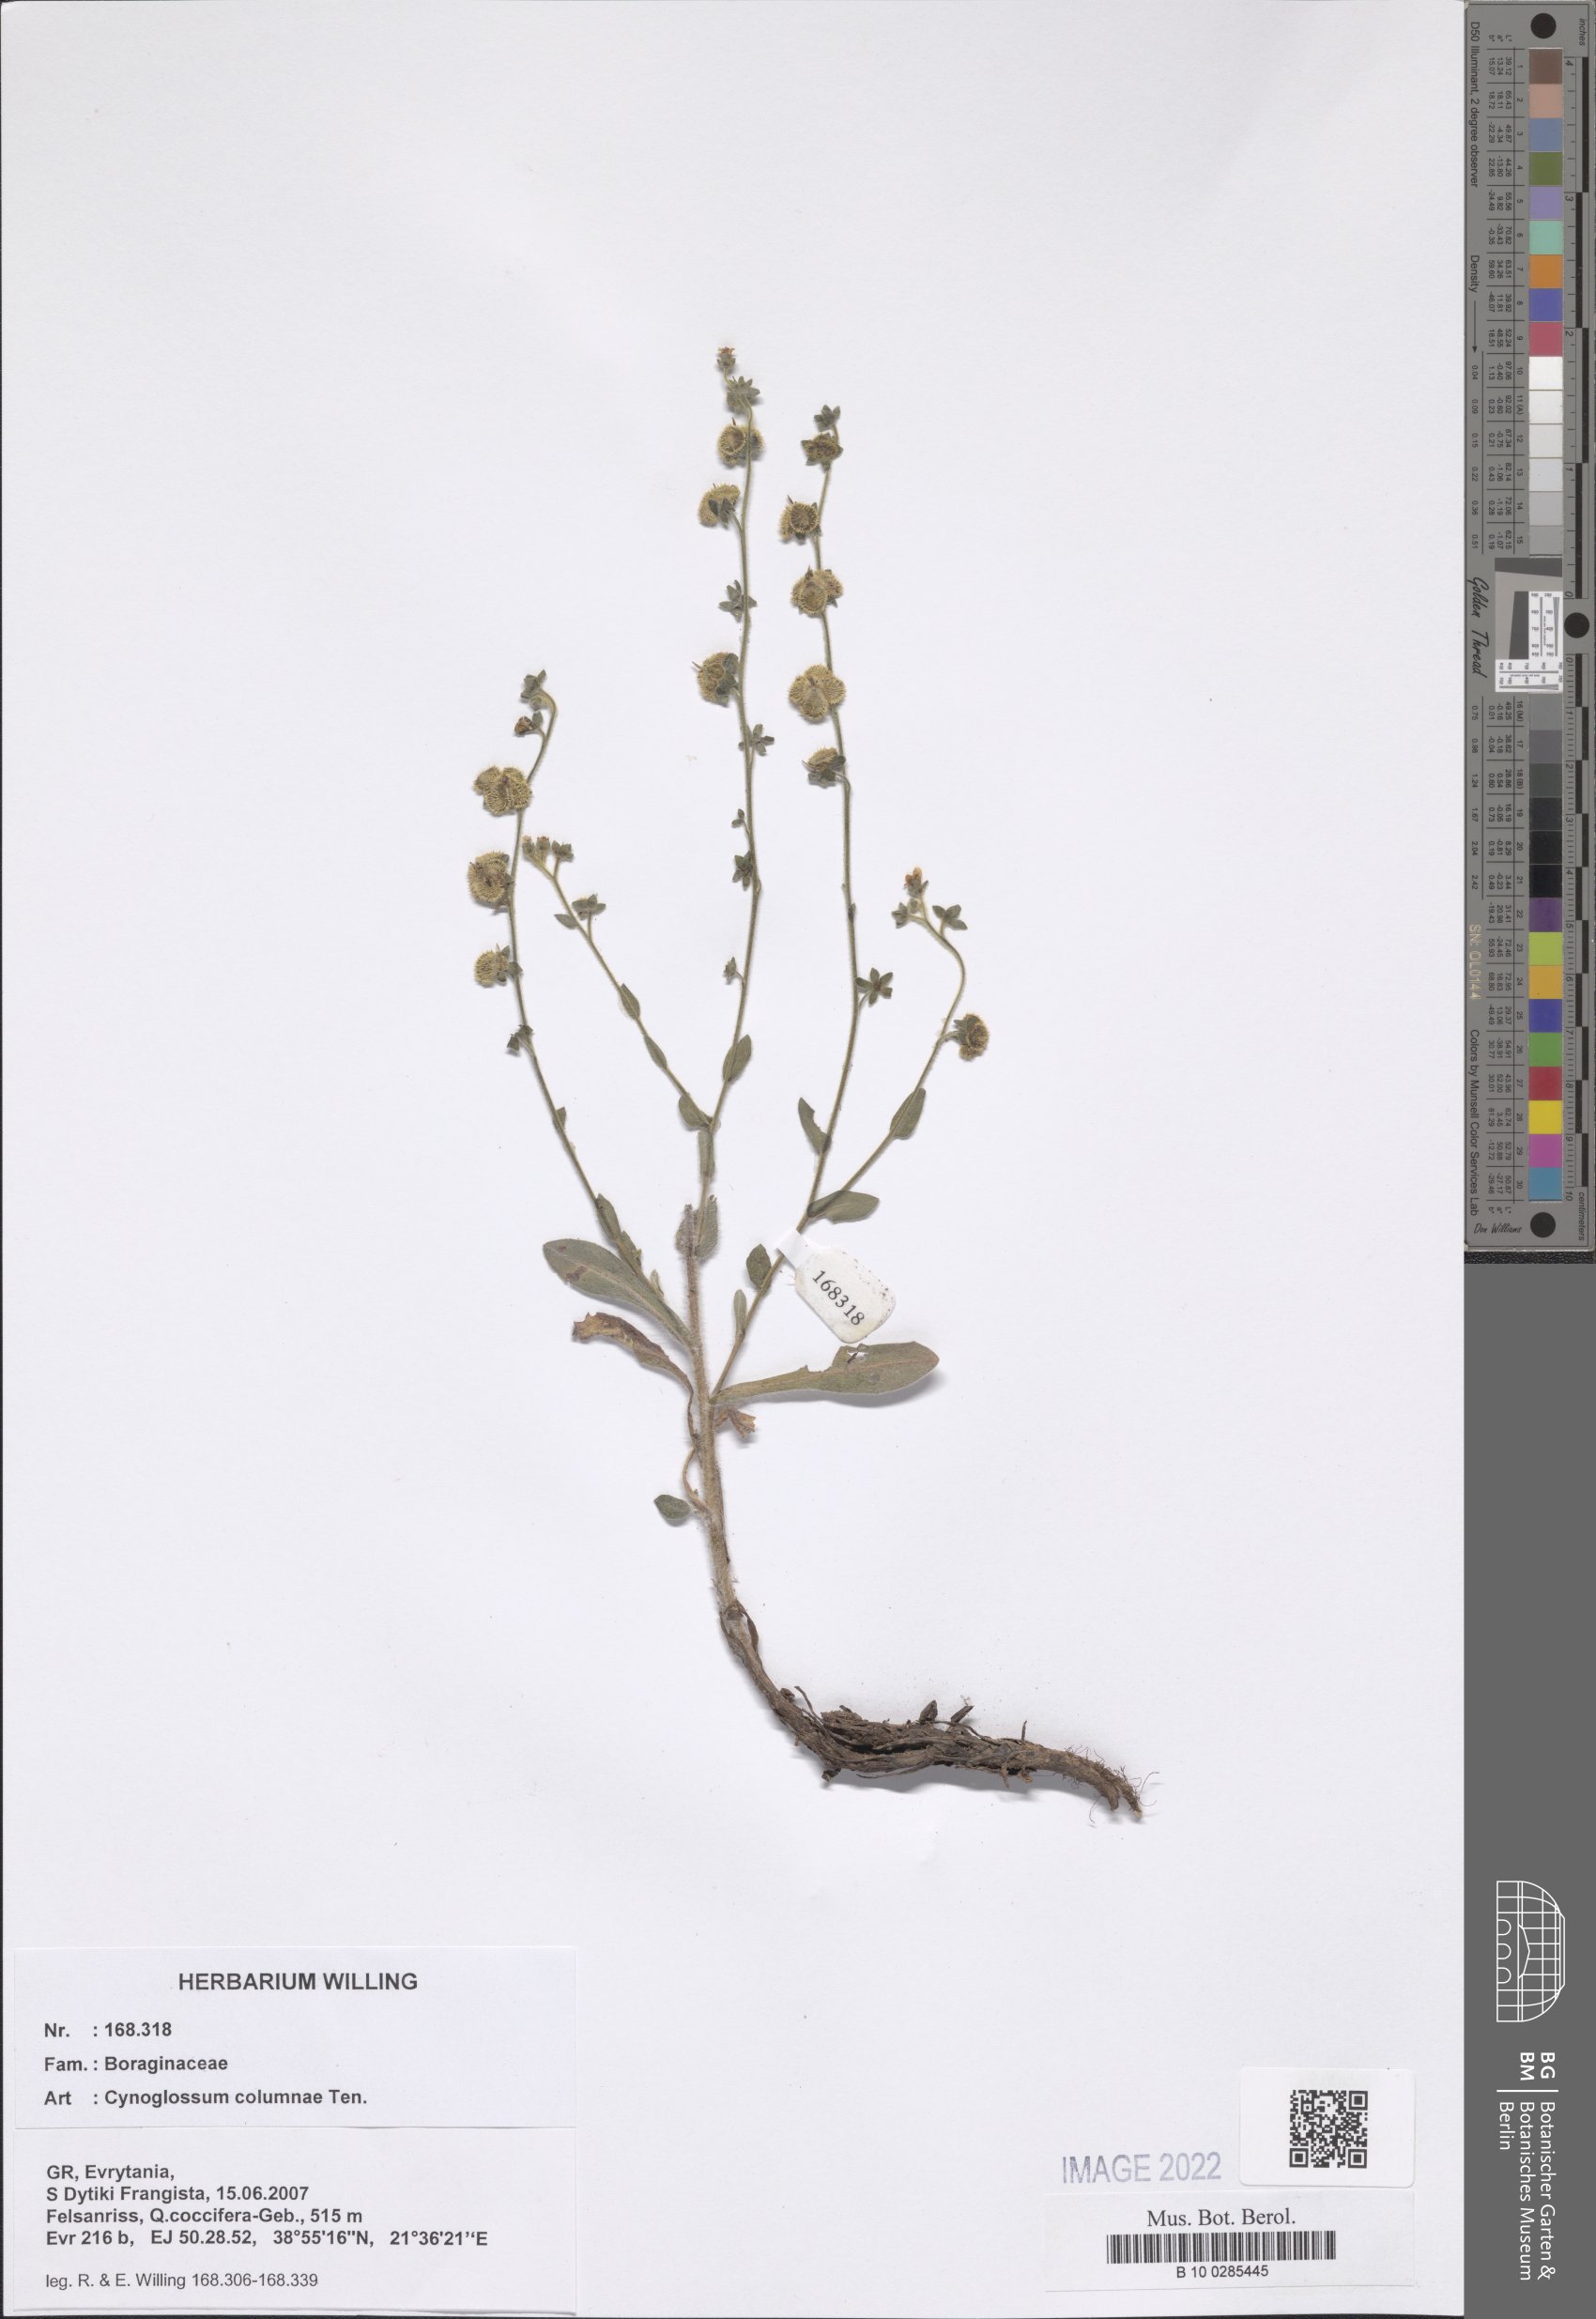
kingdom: Plantae
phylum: Tracheophyta
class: Magnoliopsida
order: Boraginales
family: Boraginaceae
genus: Rindera
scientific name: Rindera columnae
